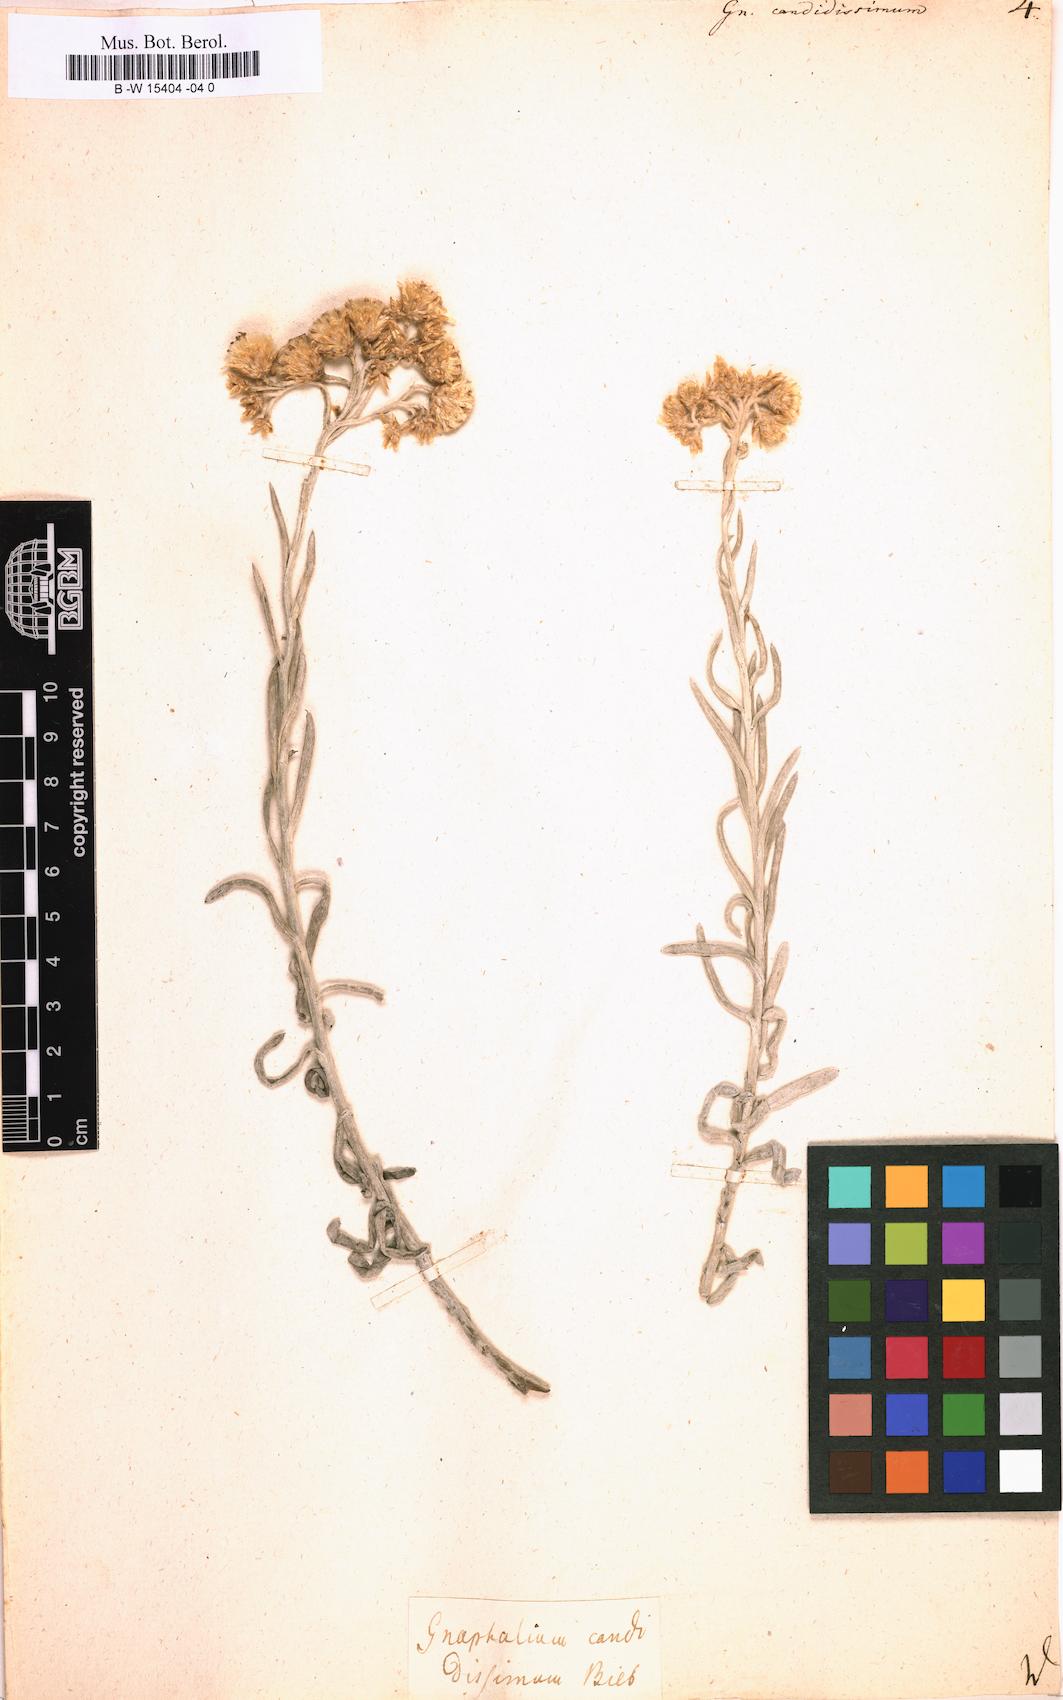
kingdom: Plantae
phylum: Tracheophyta
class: Magnoliopsida
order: Asterales
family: Asteraceae
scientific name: Asteraceae
